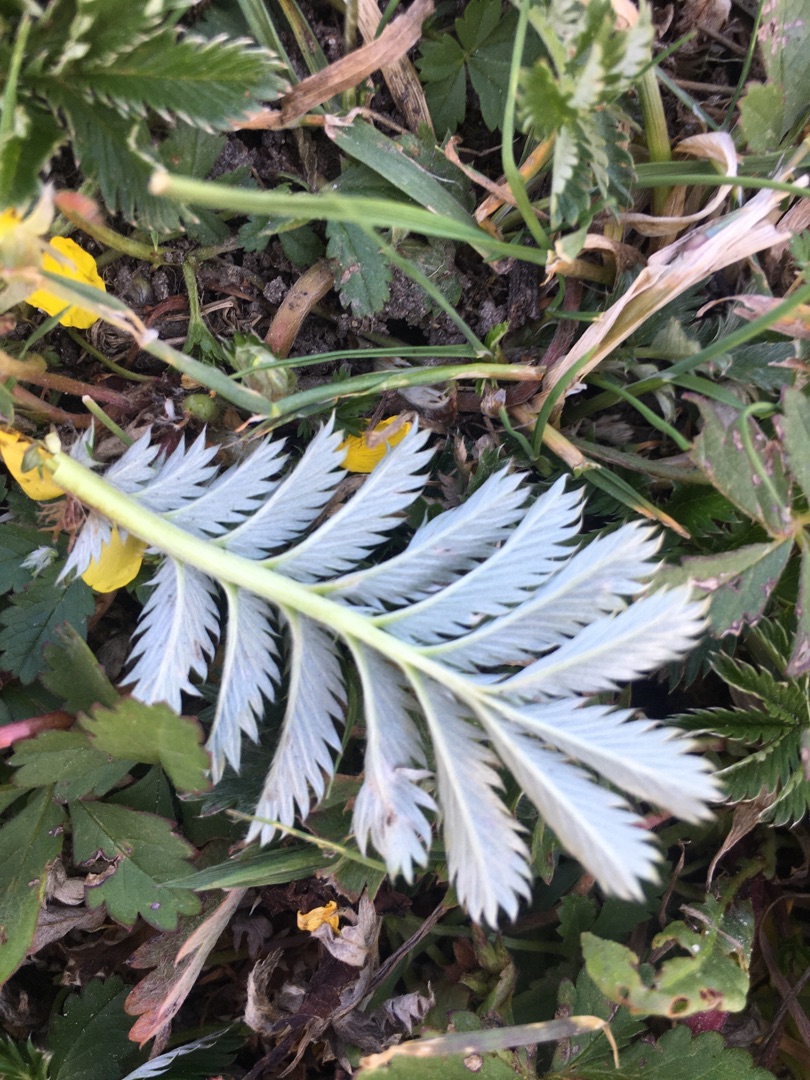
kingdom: Plantae
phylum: Tracheophyta
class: Magnoliopsida
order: Rosales
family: Rosaceae
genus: Argentina
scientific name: Argentina anserina
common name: Gåsepotentil
